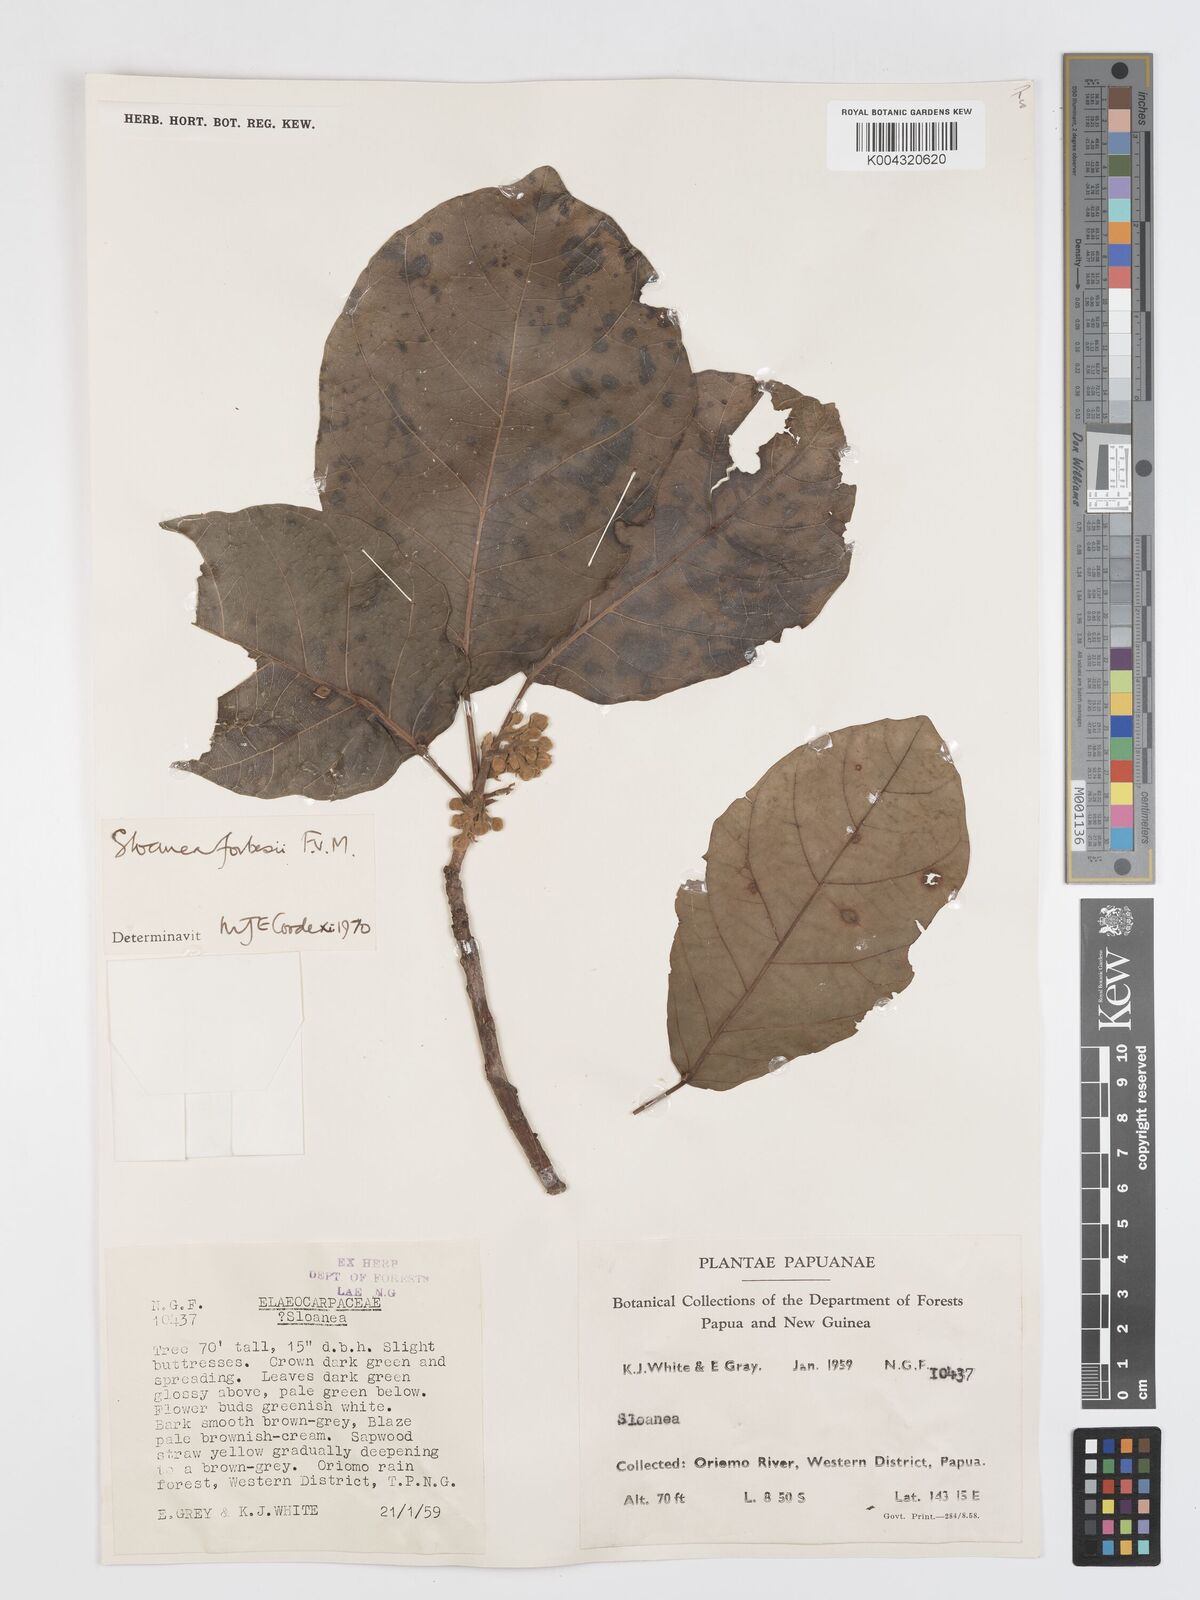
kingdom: Plantae
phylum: Tracheophyta
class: Magnoliopsida
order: Oxalidales
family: Elaeocarpaceae
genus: Sloanea
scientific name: Sloanea forbesii
